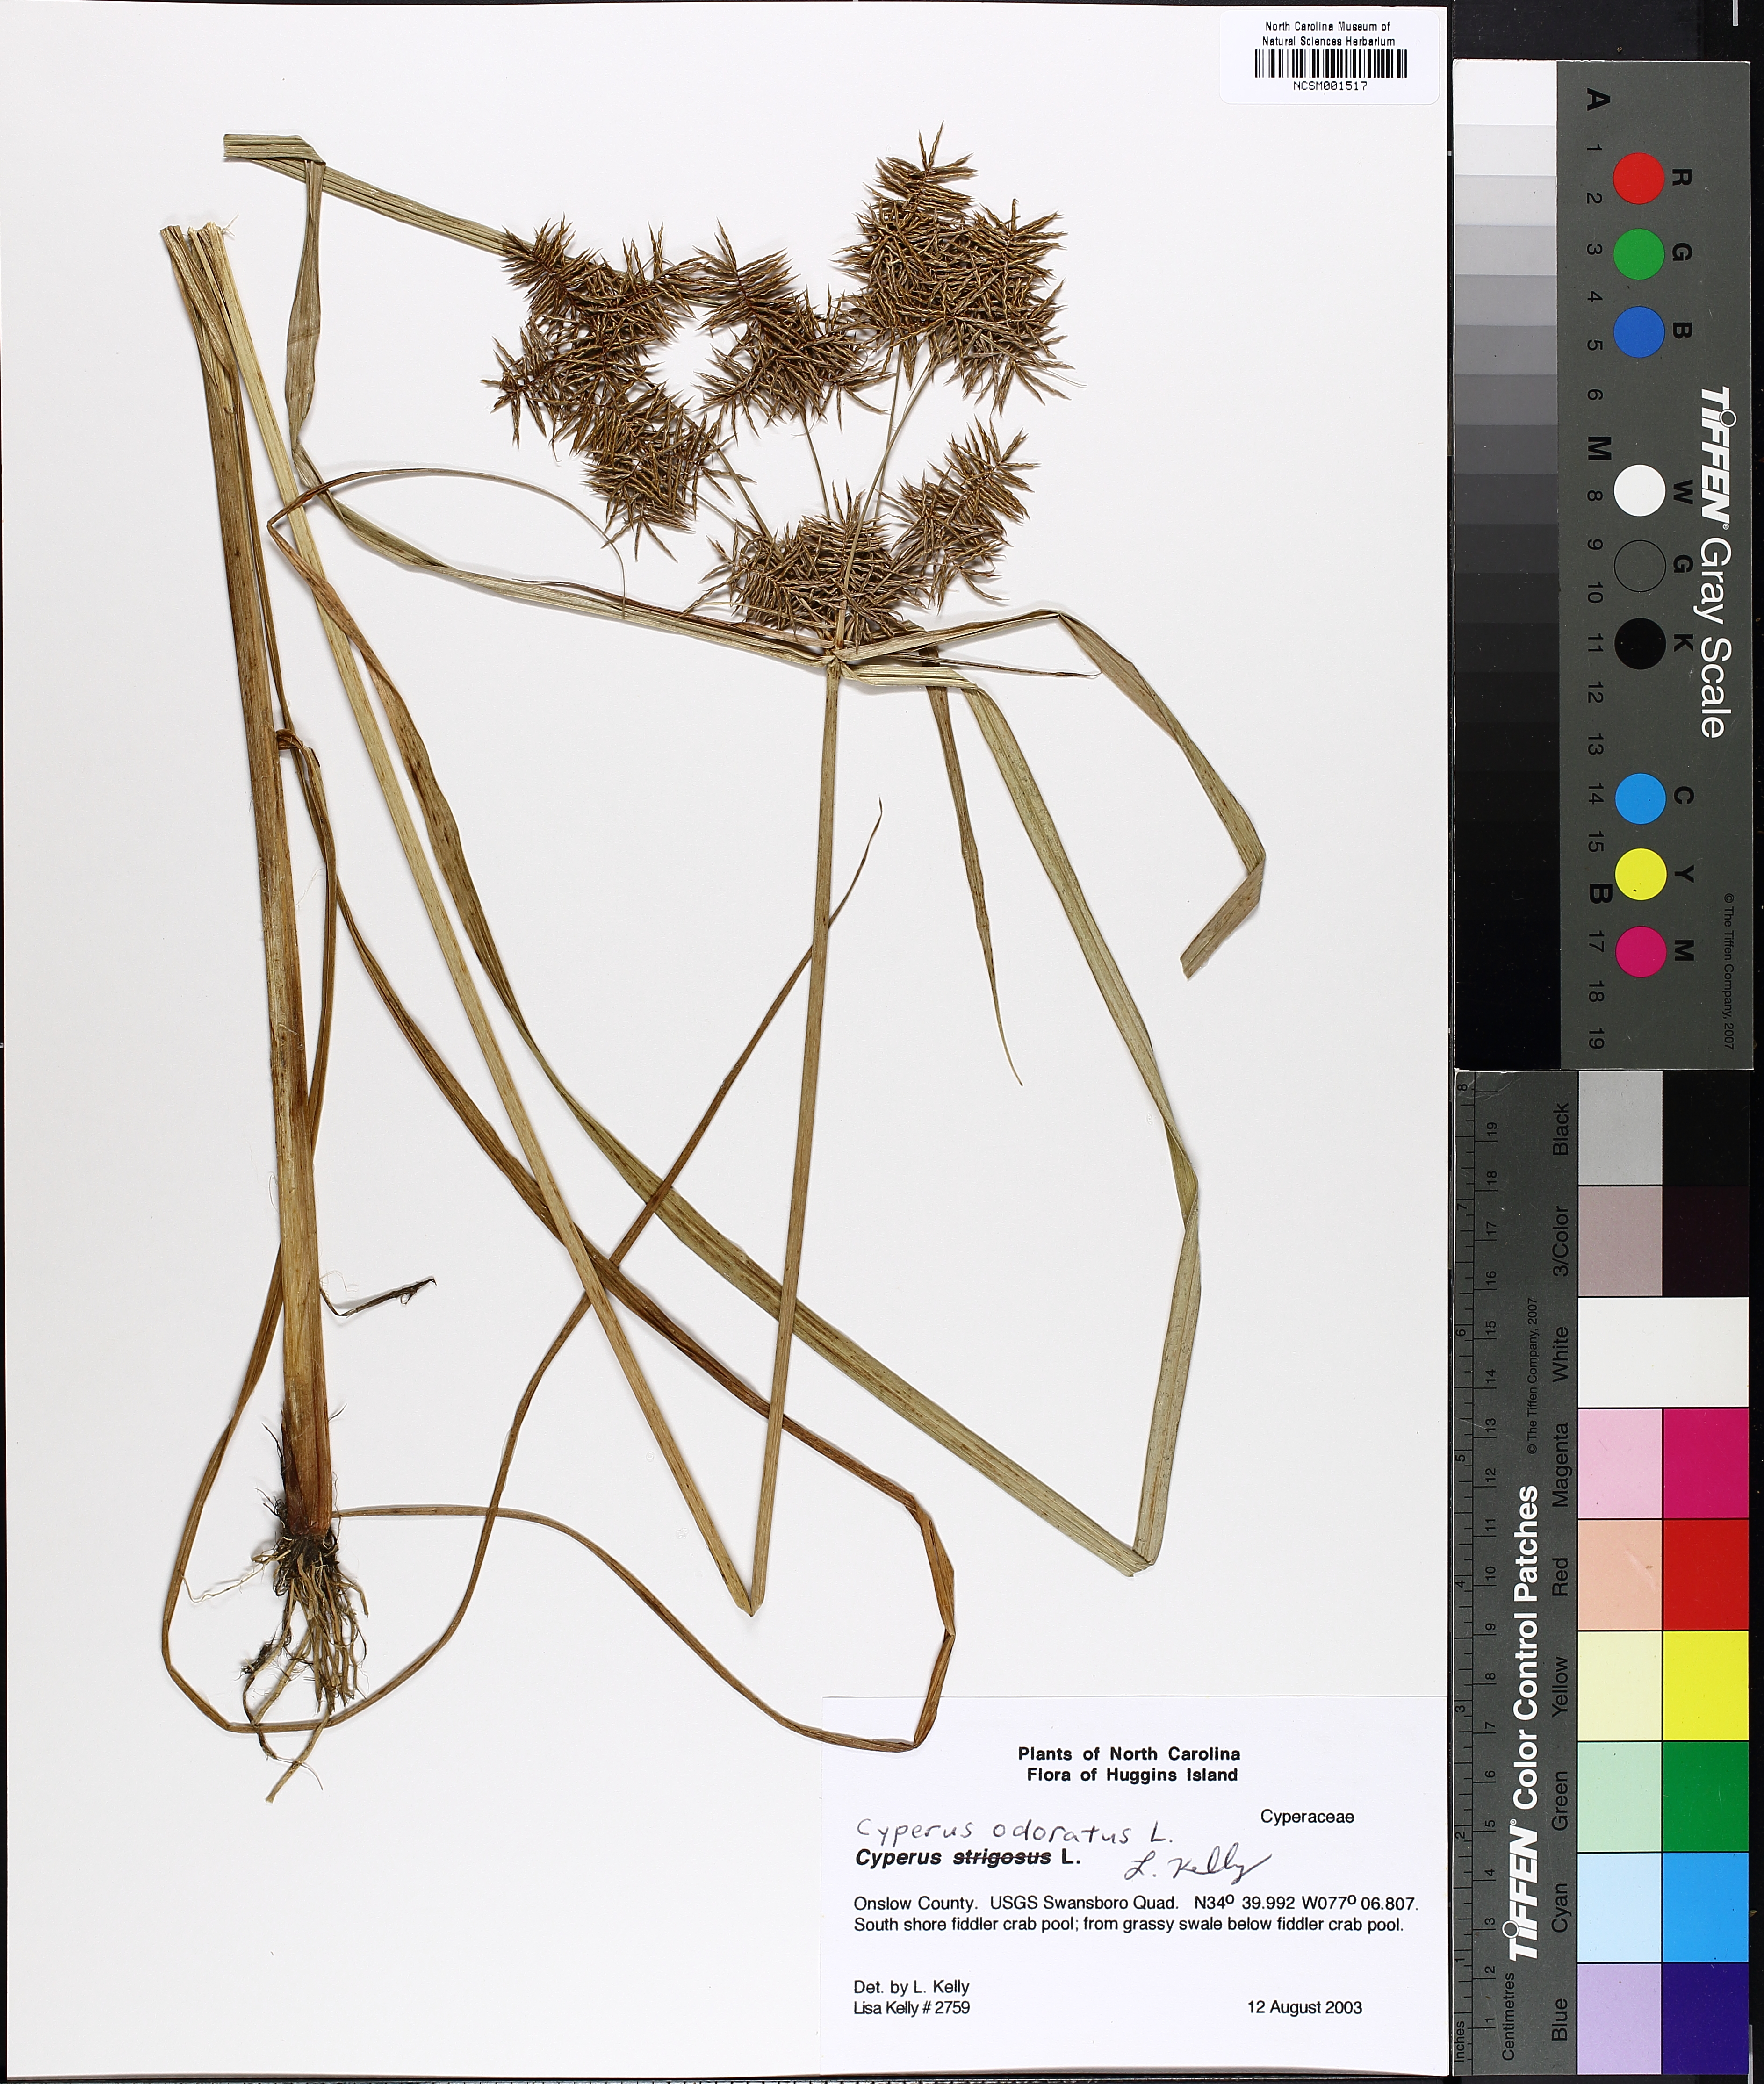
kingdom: Plantae
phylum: Tracheophyta
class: Liliopsida
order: Poales
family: Cyperaceae
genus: Cyperus
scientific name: Cyperus odoratus
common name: Fragrant flatsedge
